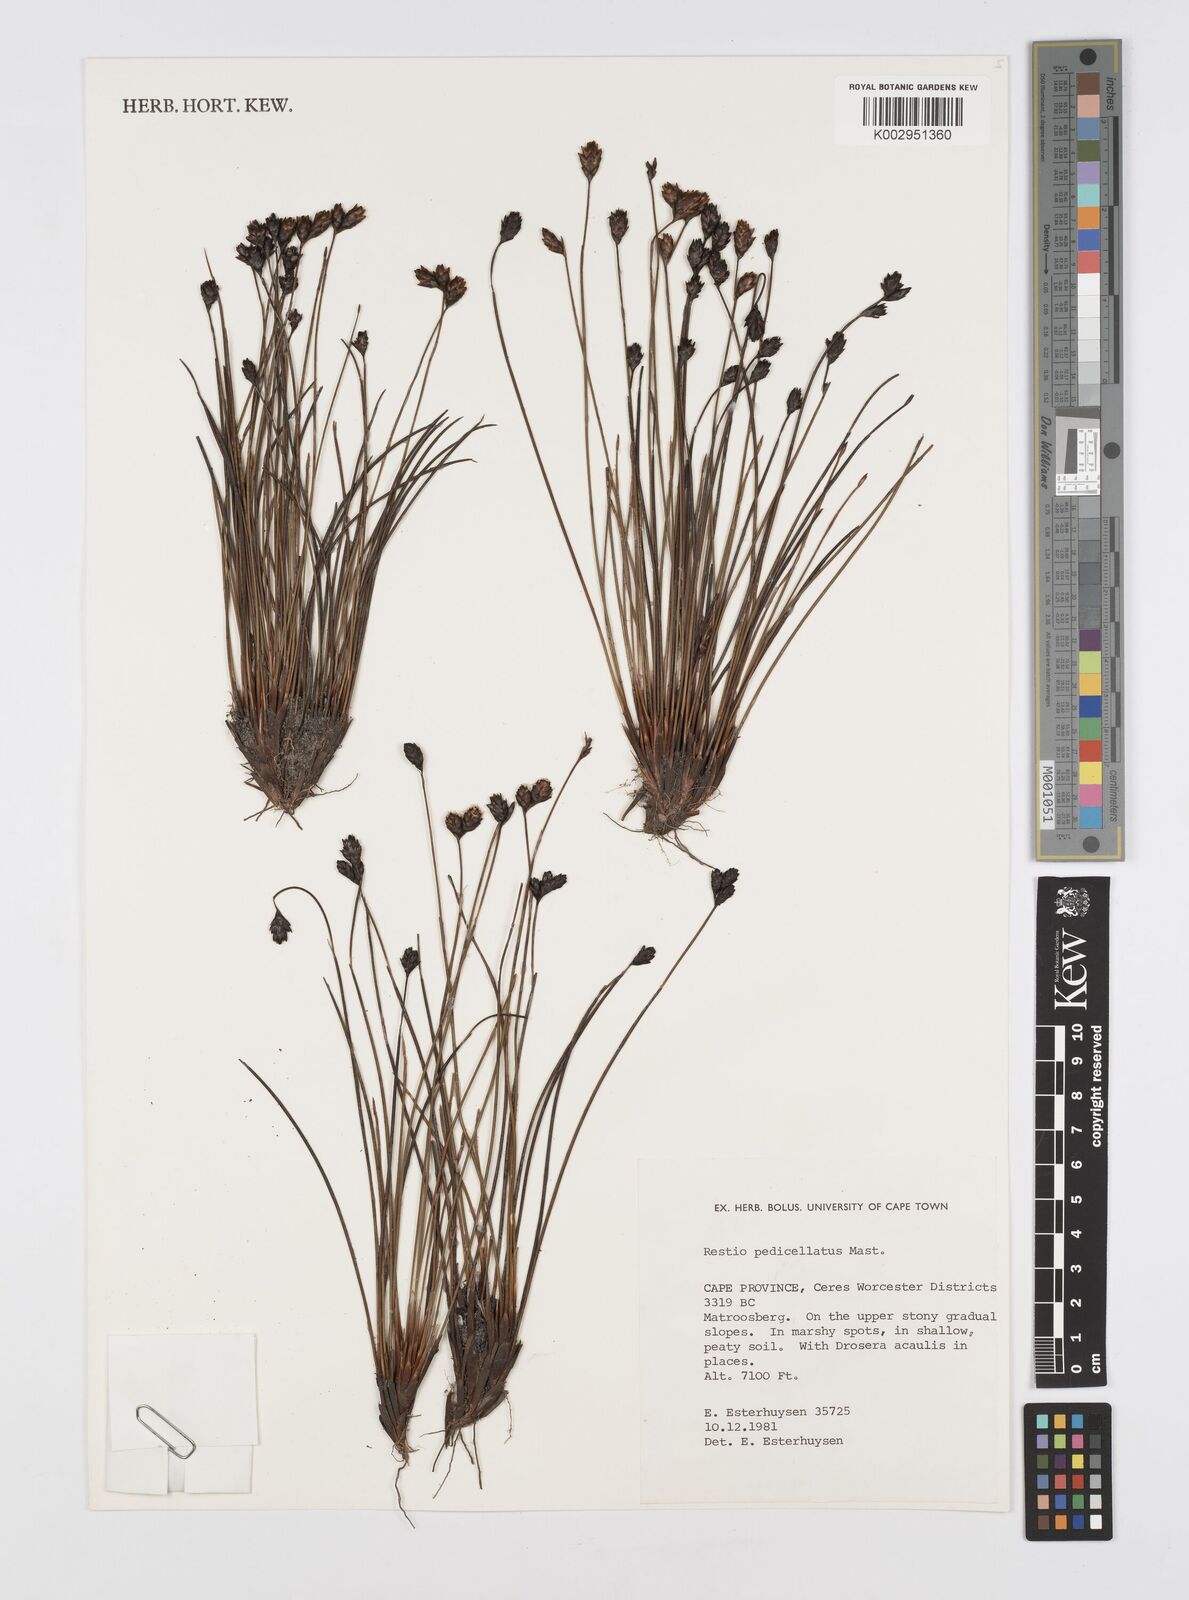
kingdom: Plantae
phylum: Tracheophyta
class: Liliopsida
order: Poales
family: Restionaceae
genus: Restio
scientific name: Restio pedicellatus
